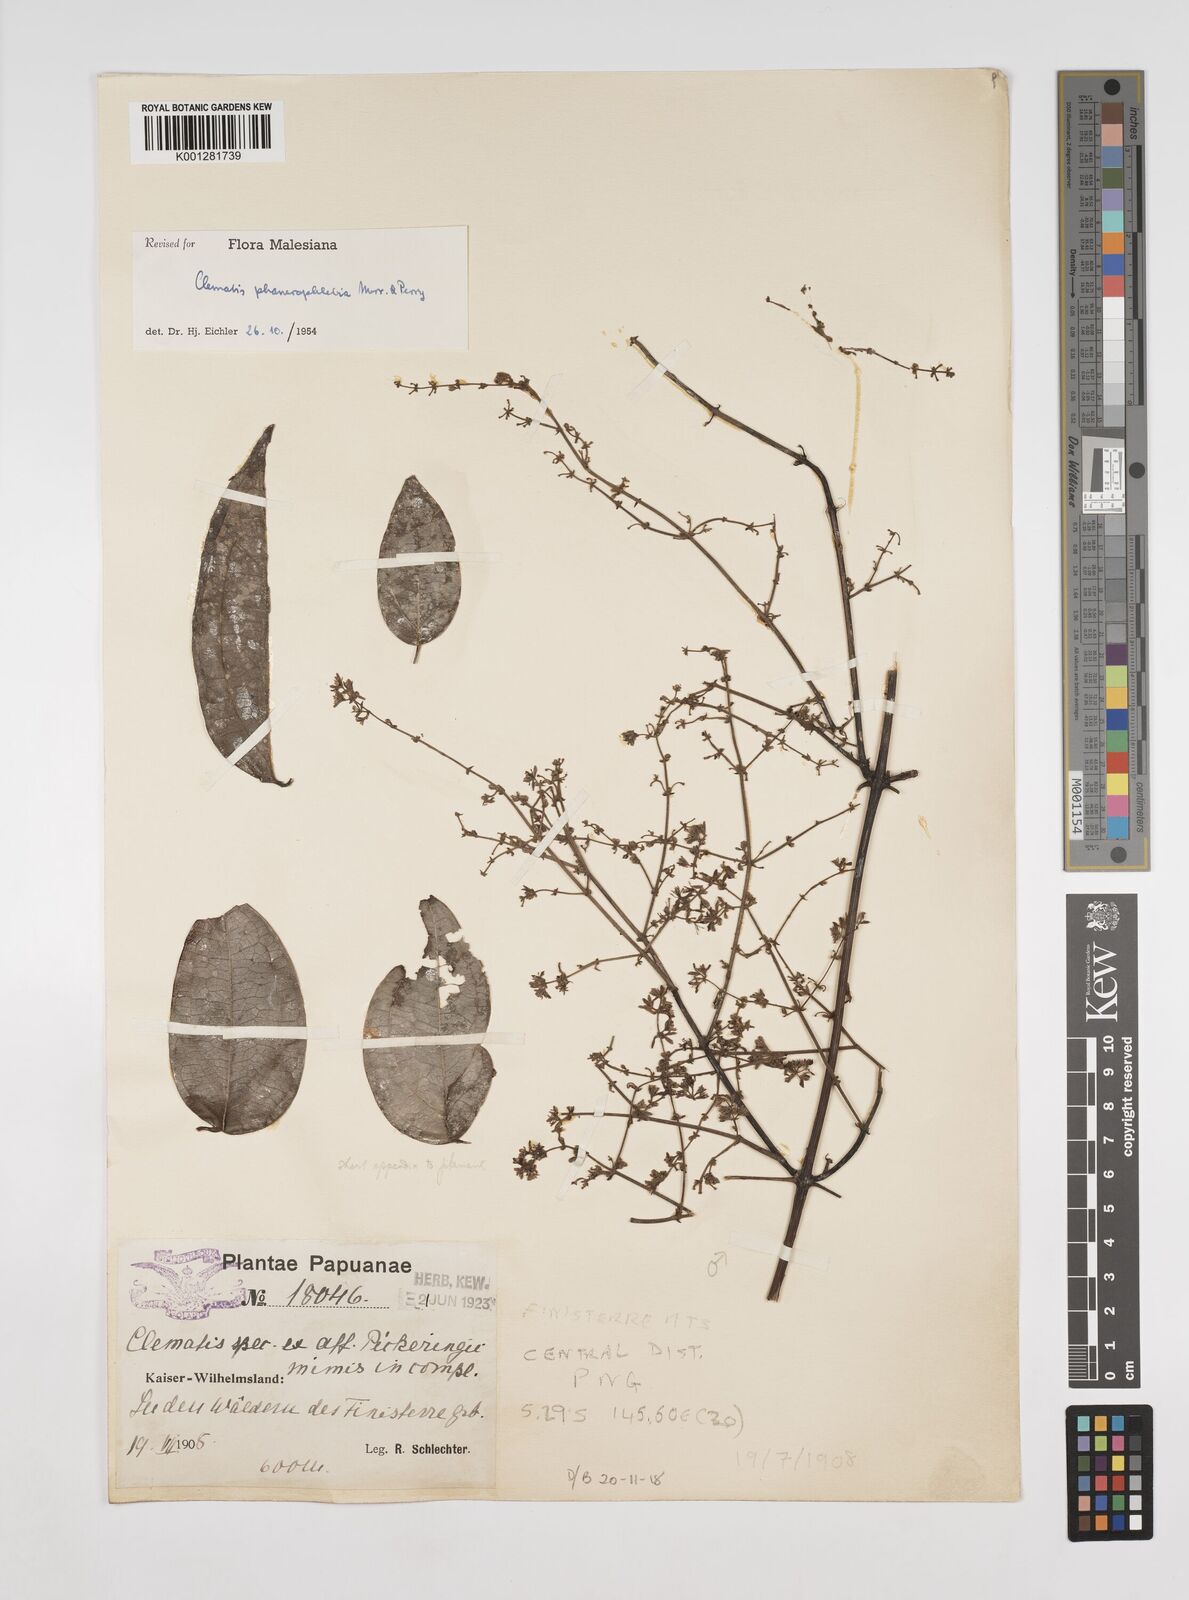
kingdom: Plantae
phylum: Tracheophyta
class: Magnoliopsida
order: Ranunculales
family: Ranunculaceae
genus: Clematis
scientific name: Clematis phanerophlebia
